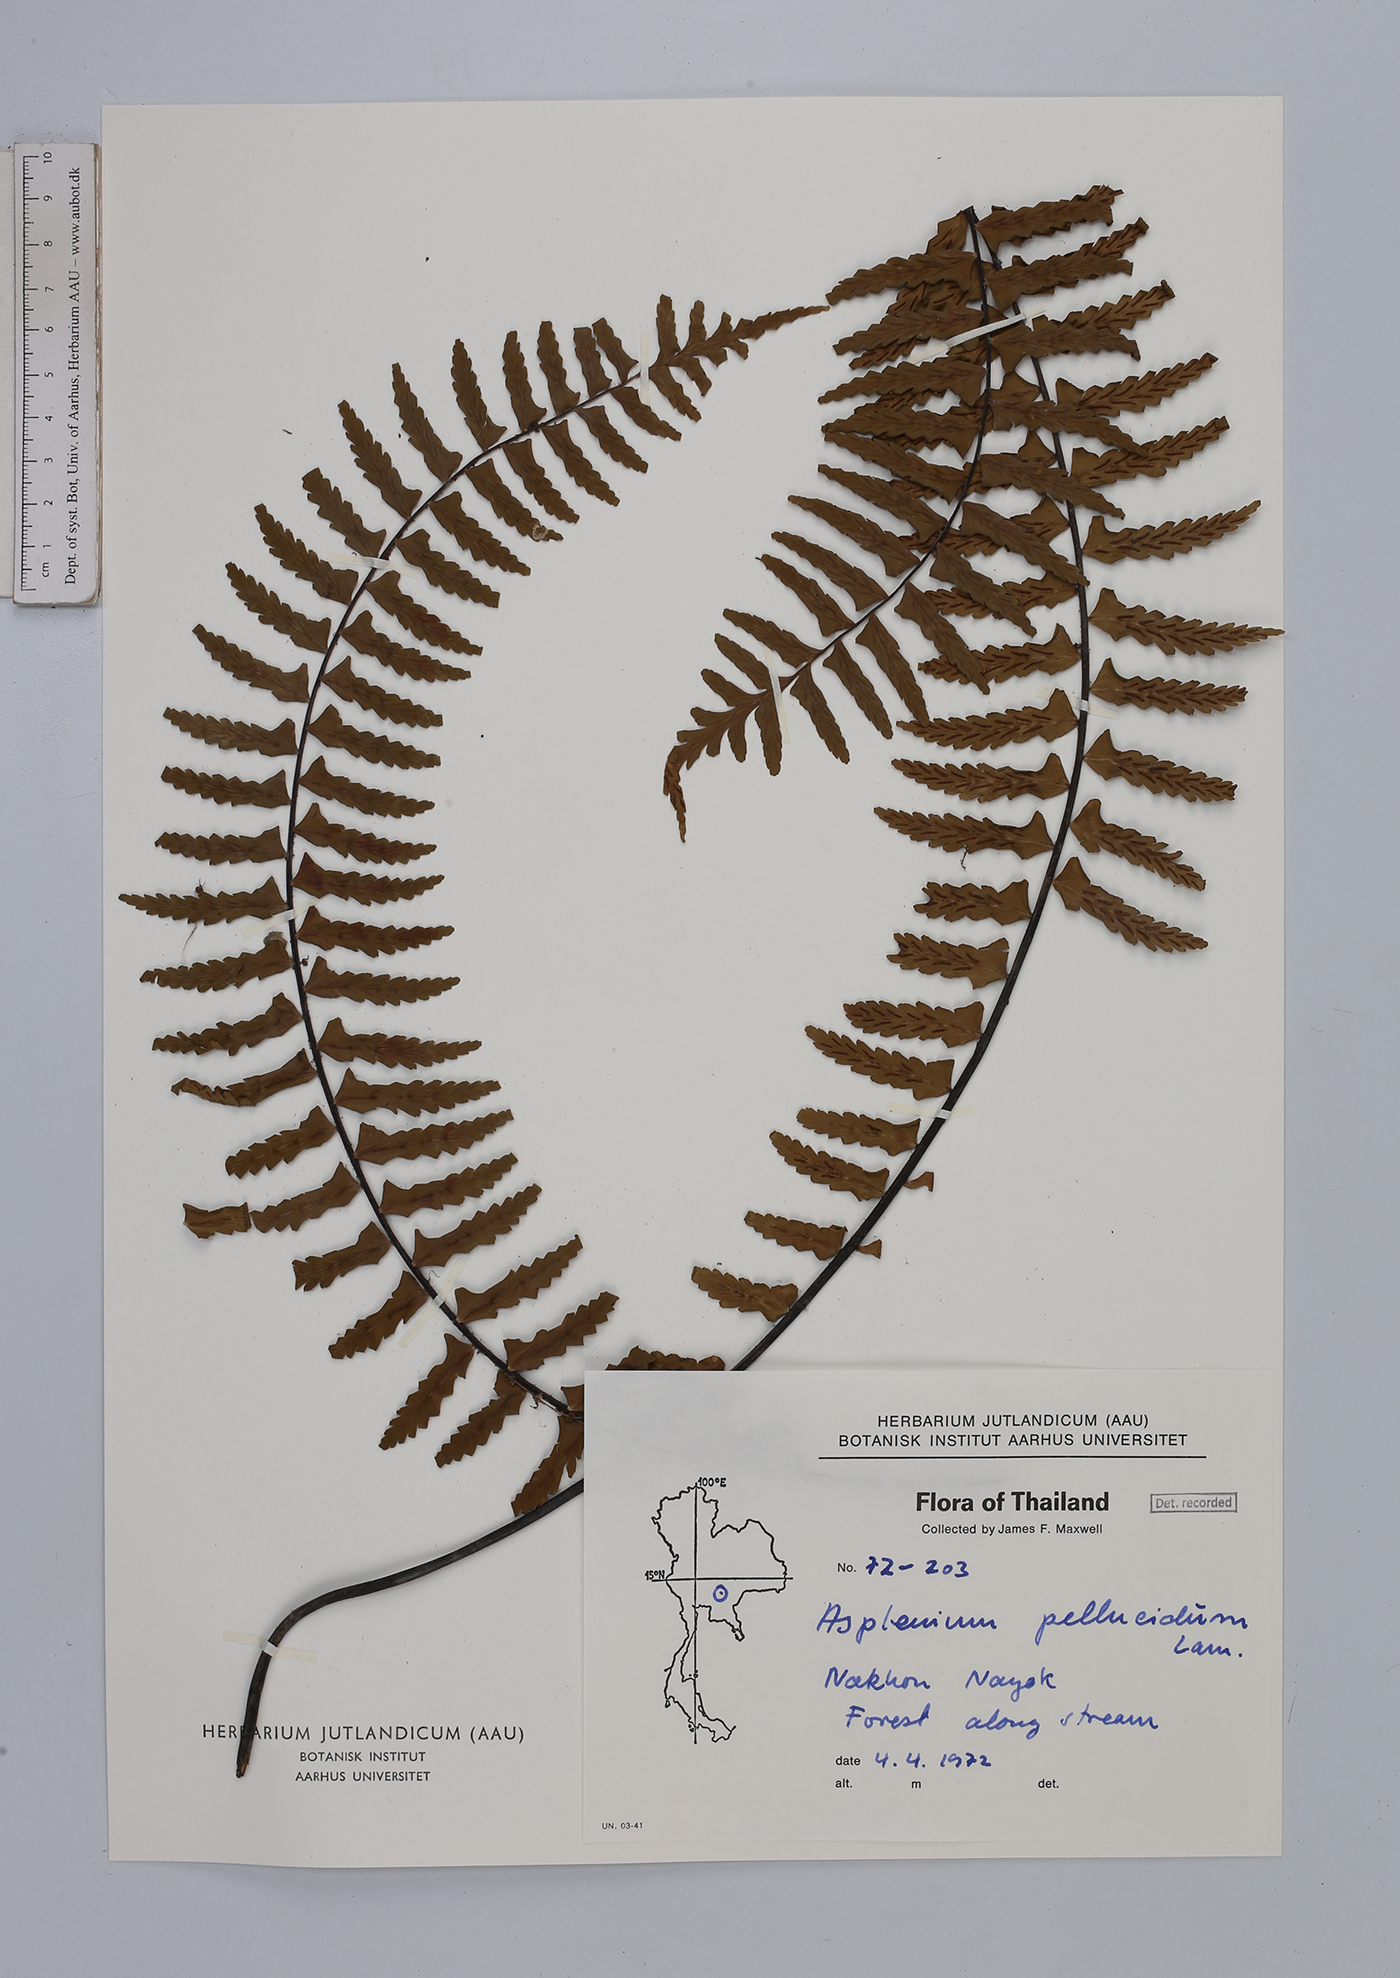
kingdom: Plantae
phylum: Tracheophyta
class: Polypodiopsida
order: Polypodiales
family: Aspleniaceae
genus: Asplenium
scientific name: Asplenium pellucidum
